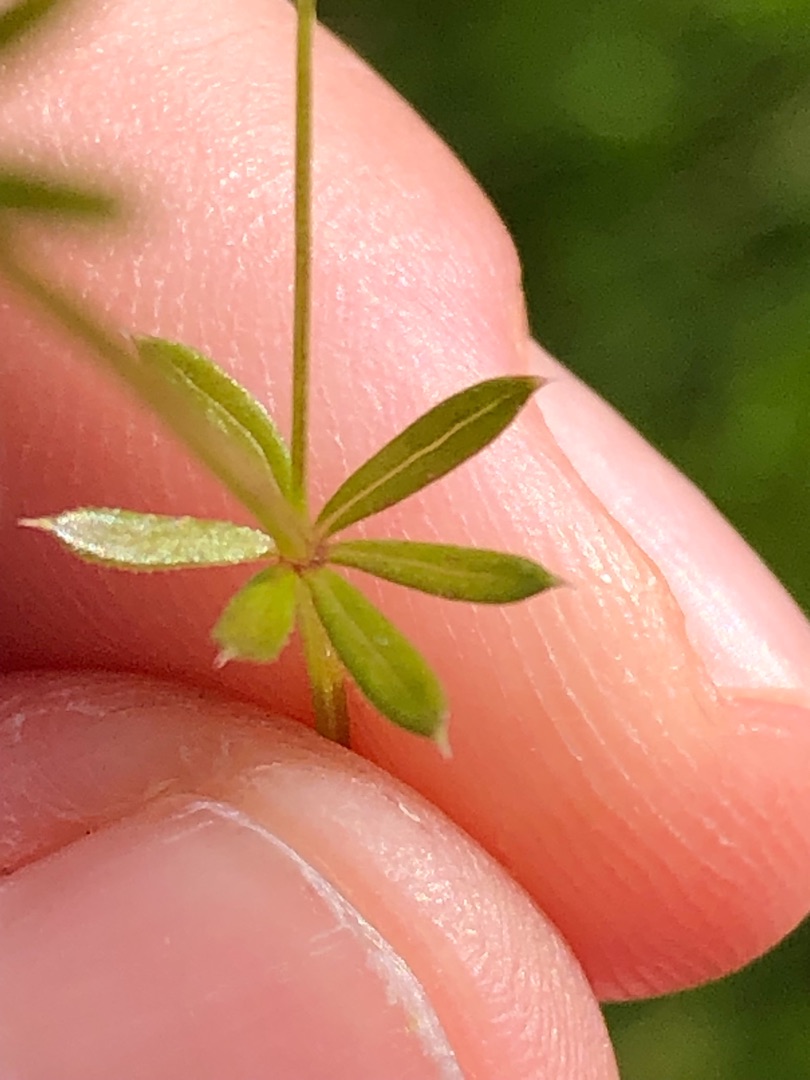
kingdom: Plantae
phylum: Tracheophyta
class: Magnoliopsida
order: Gentianales
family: Rubiaceae
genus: Galium
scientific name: Galium uliginosum
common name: Sump-snerre
